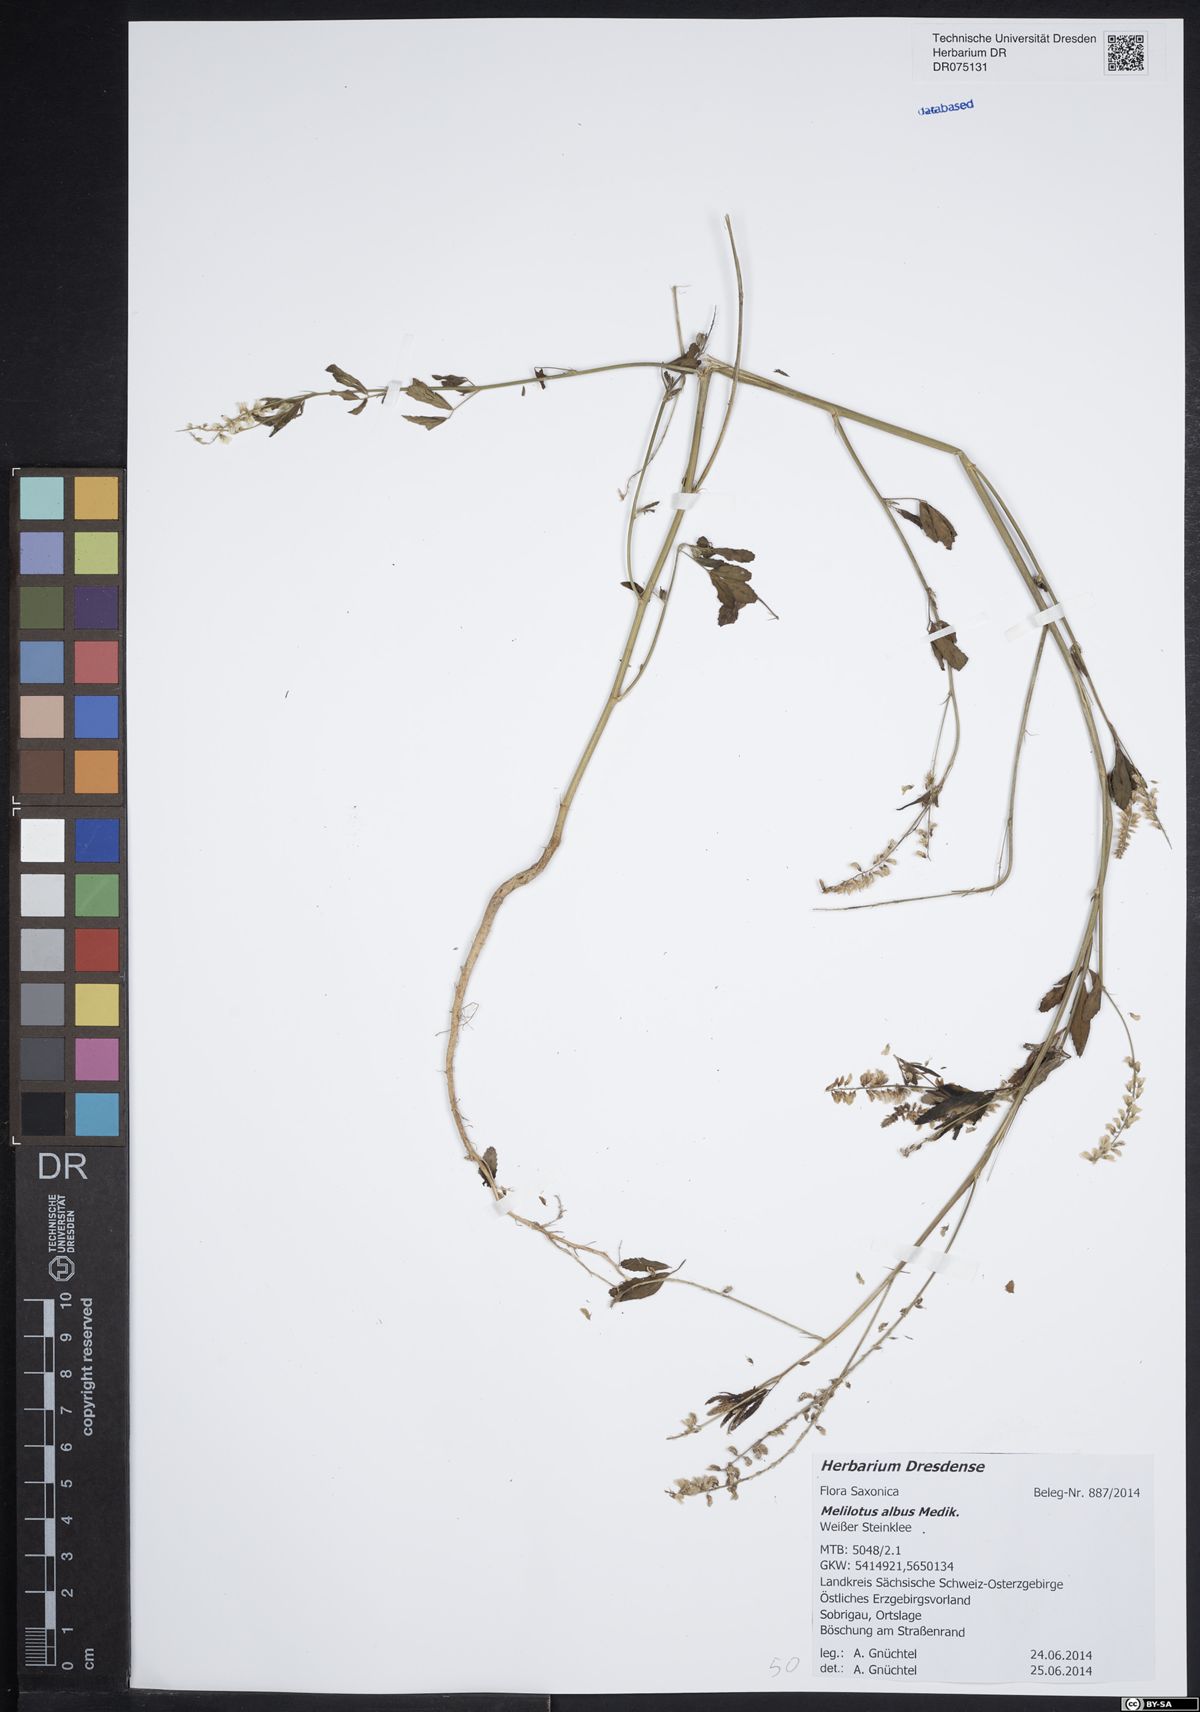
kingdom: Plantae
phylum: Tracheophyta
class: Magnoliopsida
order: Fabales
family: Fabaceae
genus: Melilotus
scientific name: Melilotus albus
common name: White melilot
